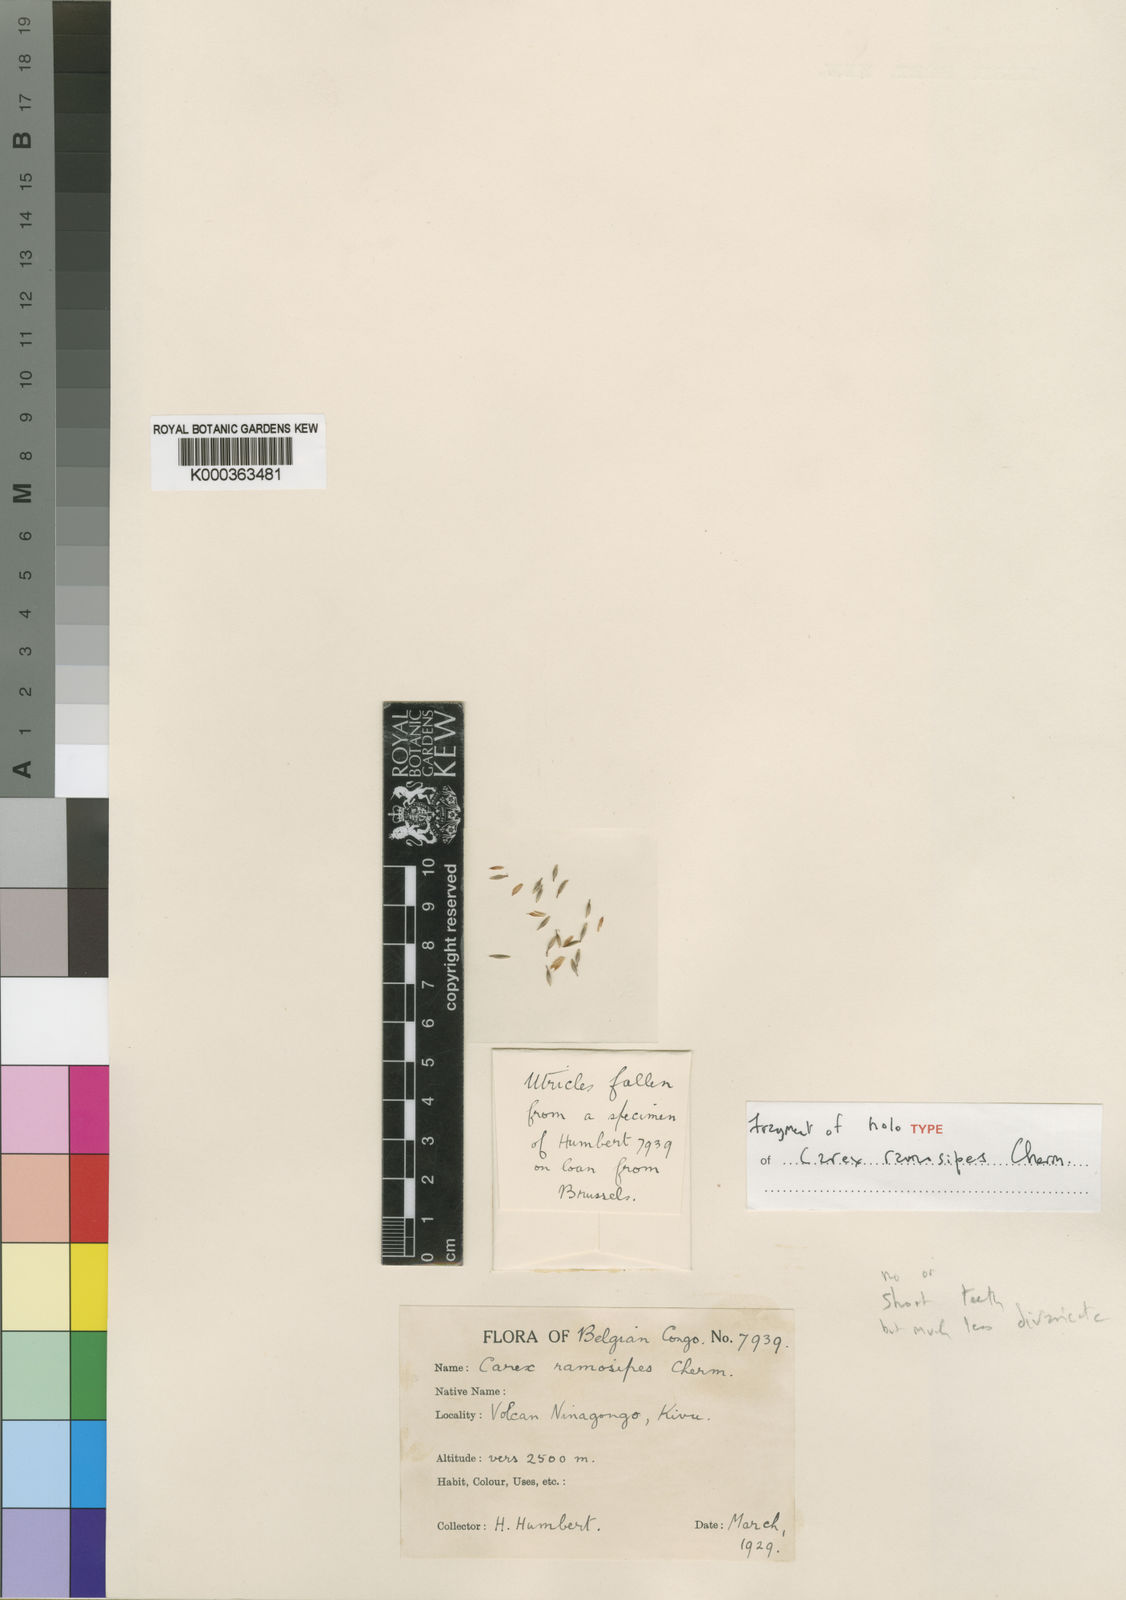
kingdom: Plantae
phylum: Tracheophyta
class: Liliopsida
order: Poales
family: Cyperaceae
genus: Carex
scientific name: Carex mildbraediana
